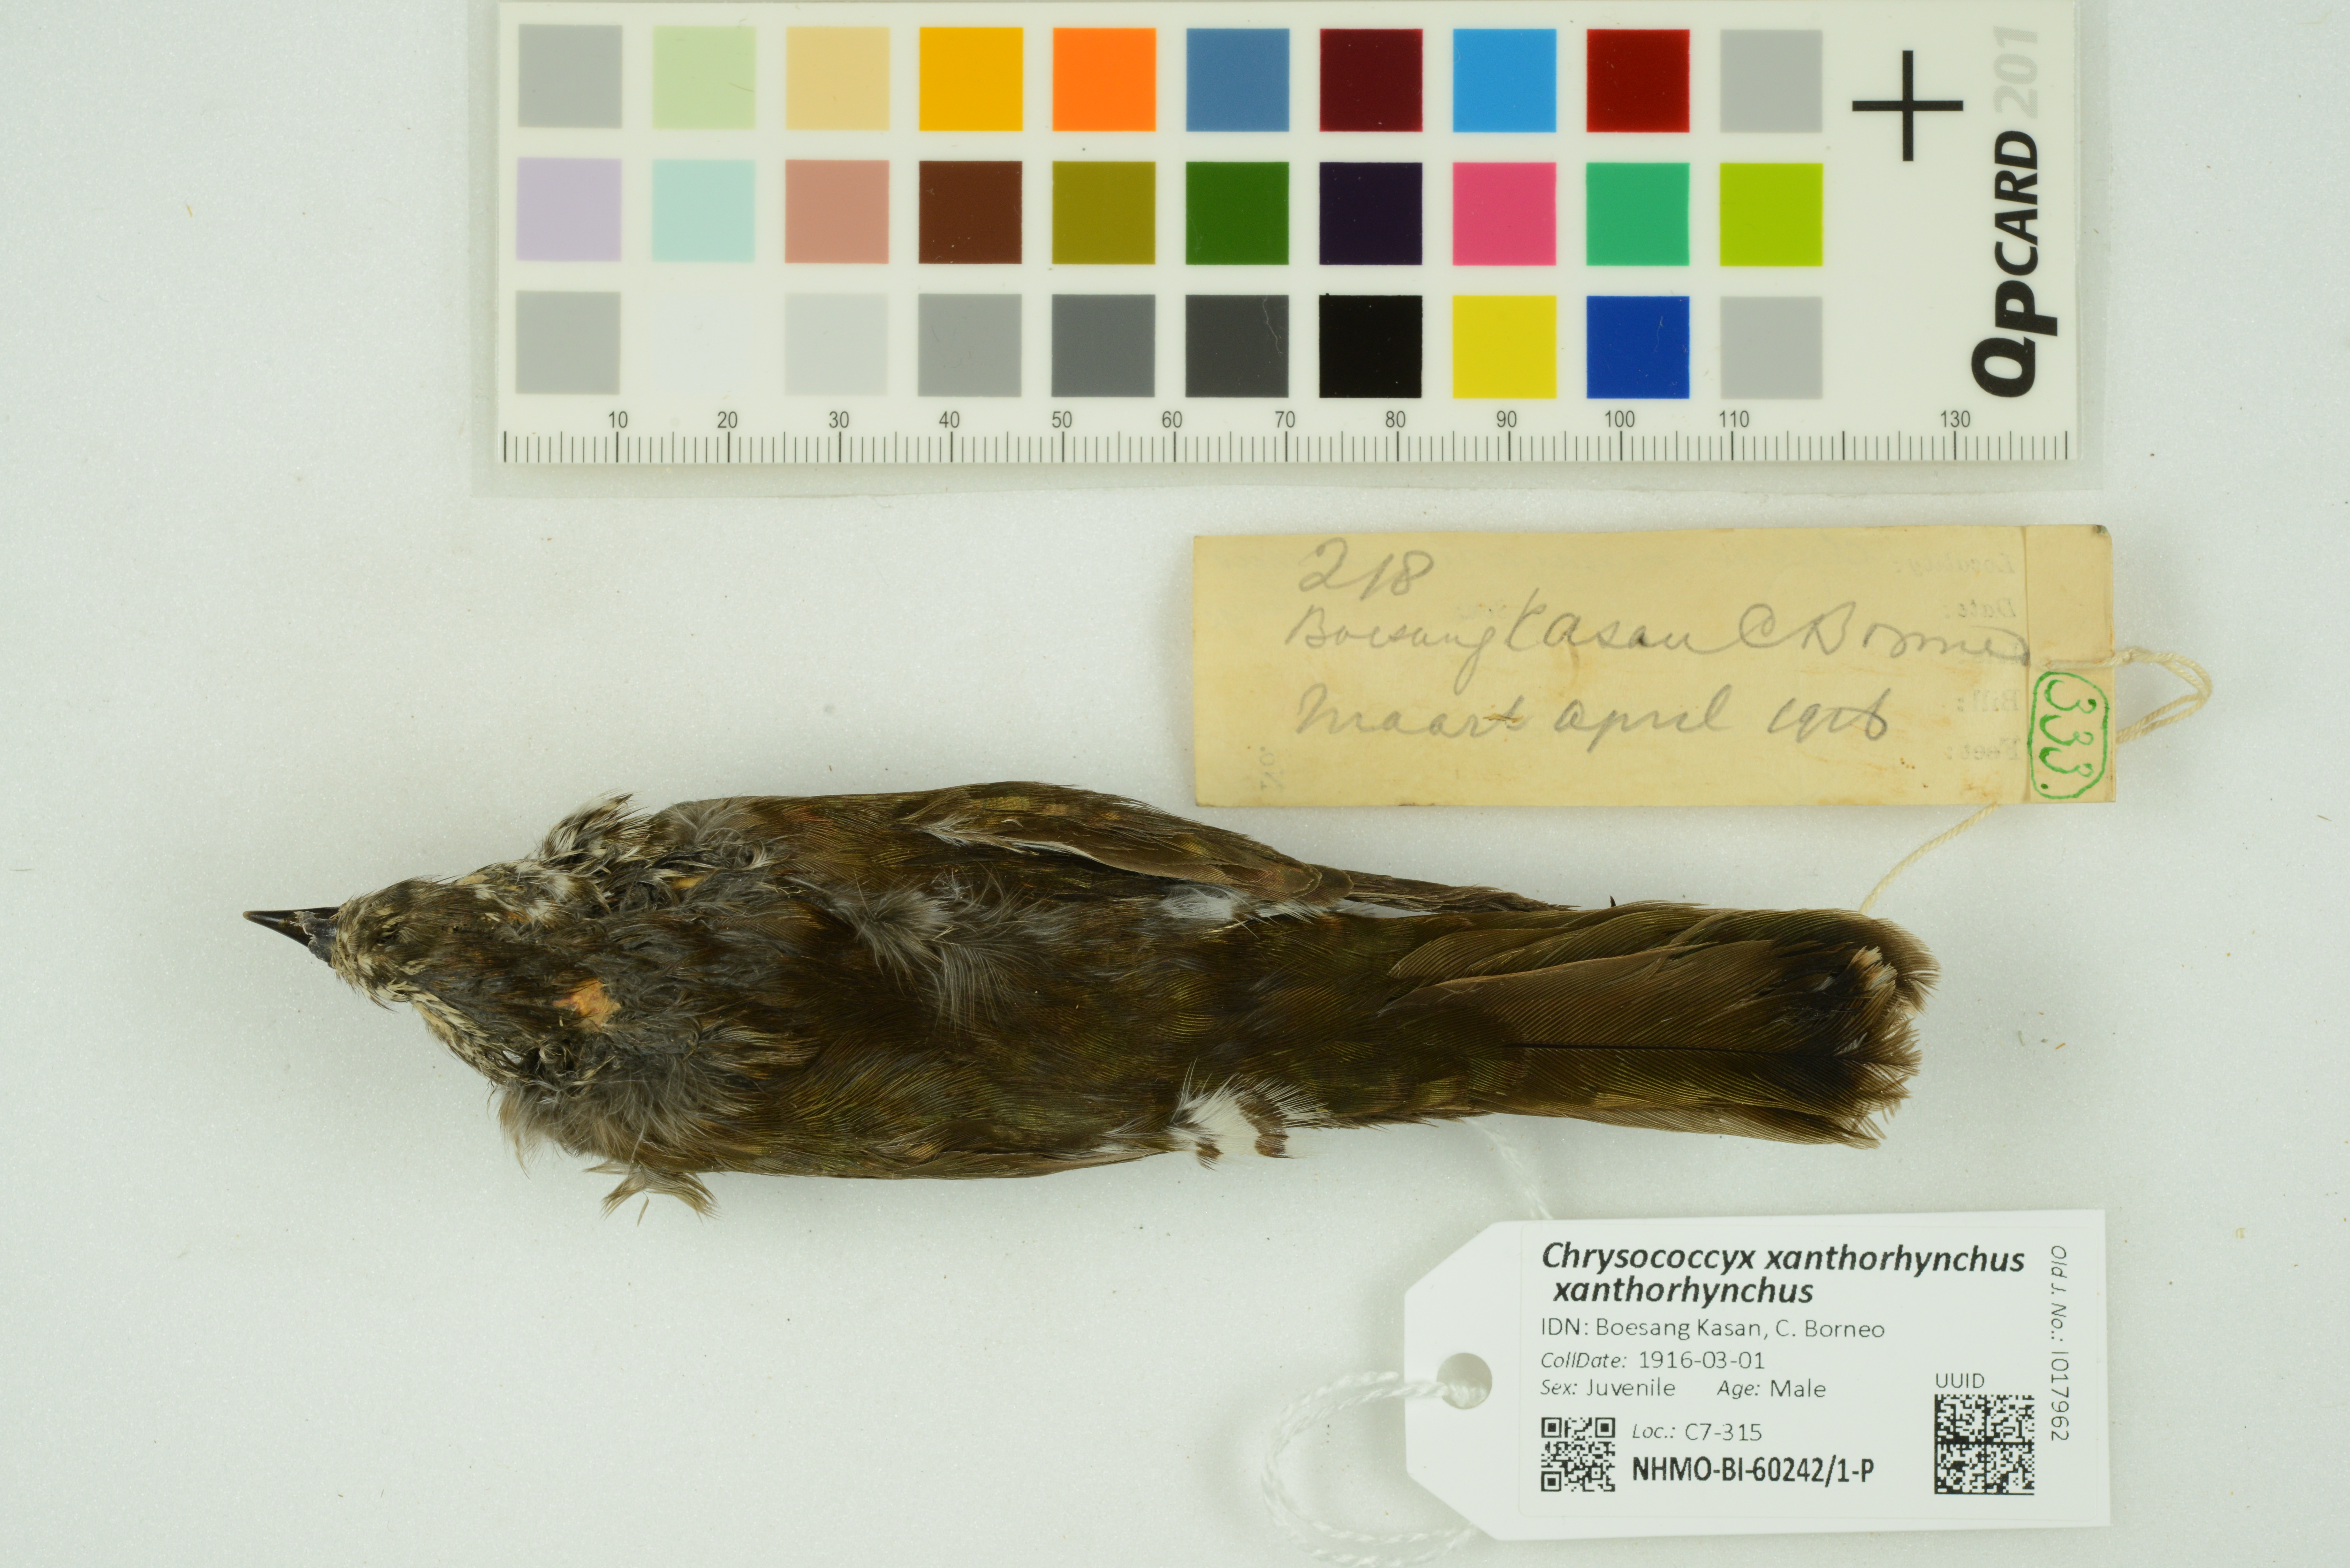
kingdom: Animalia
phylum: Chordata
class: Aves
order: Cuculiformes
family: Cuculidae
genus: Chrysococcyx
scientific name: Chrysococcyx xanthorhynchus
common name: Violet cuckoo
